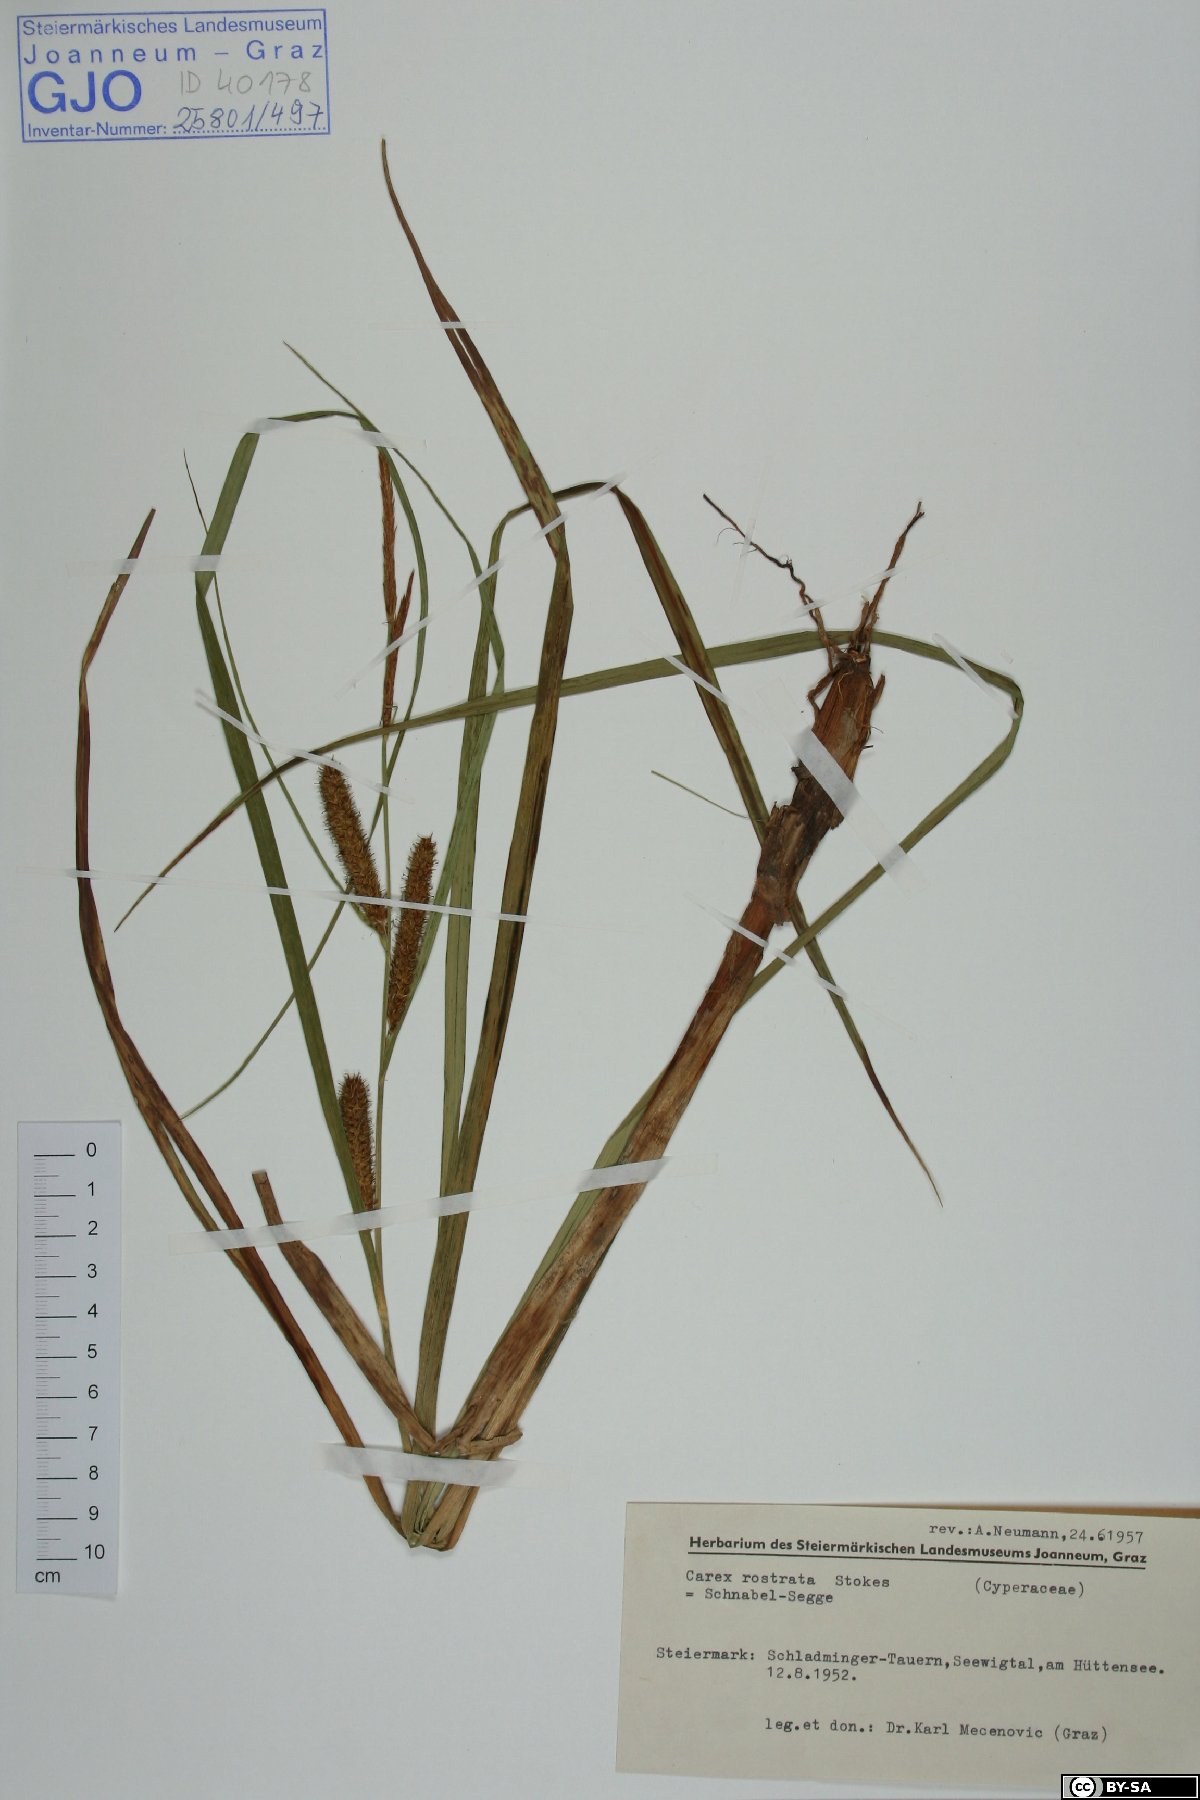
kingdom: Plantae
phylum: Tracheophyta
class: Liliopsida
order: Poales
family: Cyperaceae
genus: Carex
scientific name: Carex rostrata
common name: Bottle sedge
